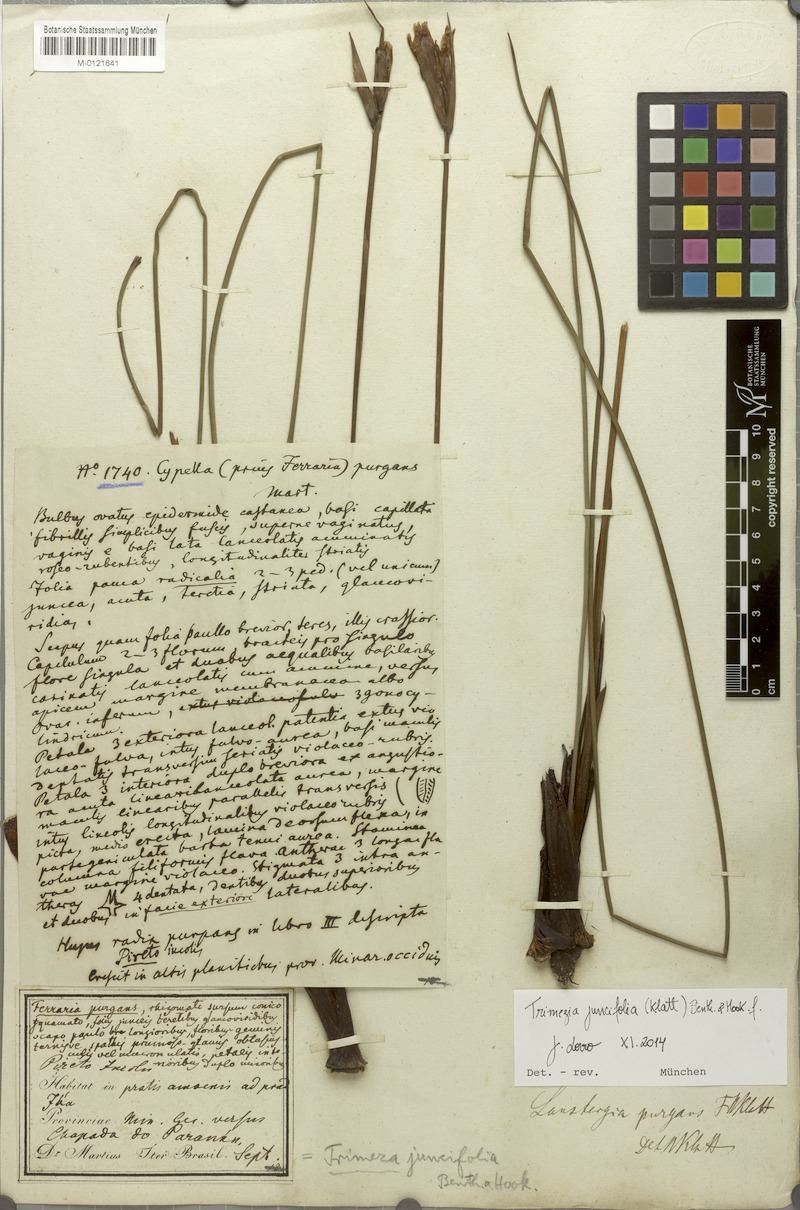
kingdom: Plantae
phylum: Tracheophyta
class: Liliopsida
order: Asparagales
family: Iridaceae
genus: Trimezia
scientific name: Trimezia juncifolia
